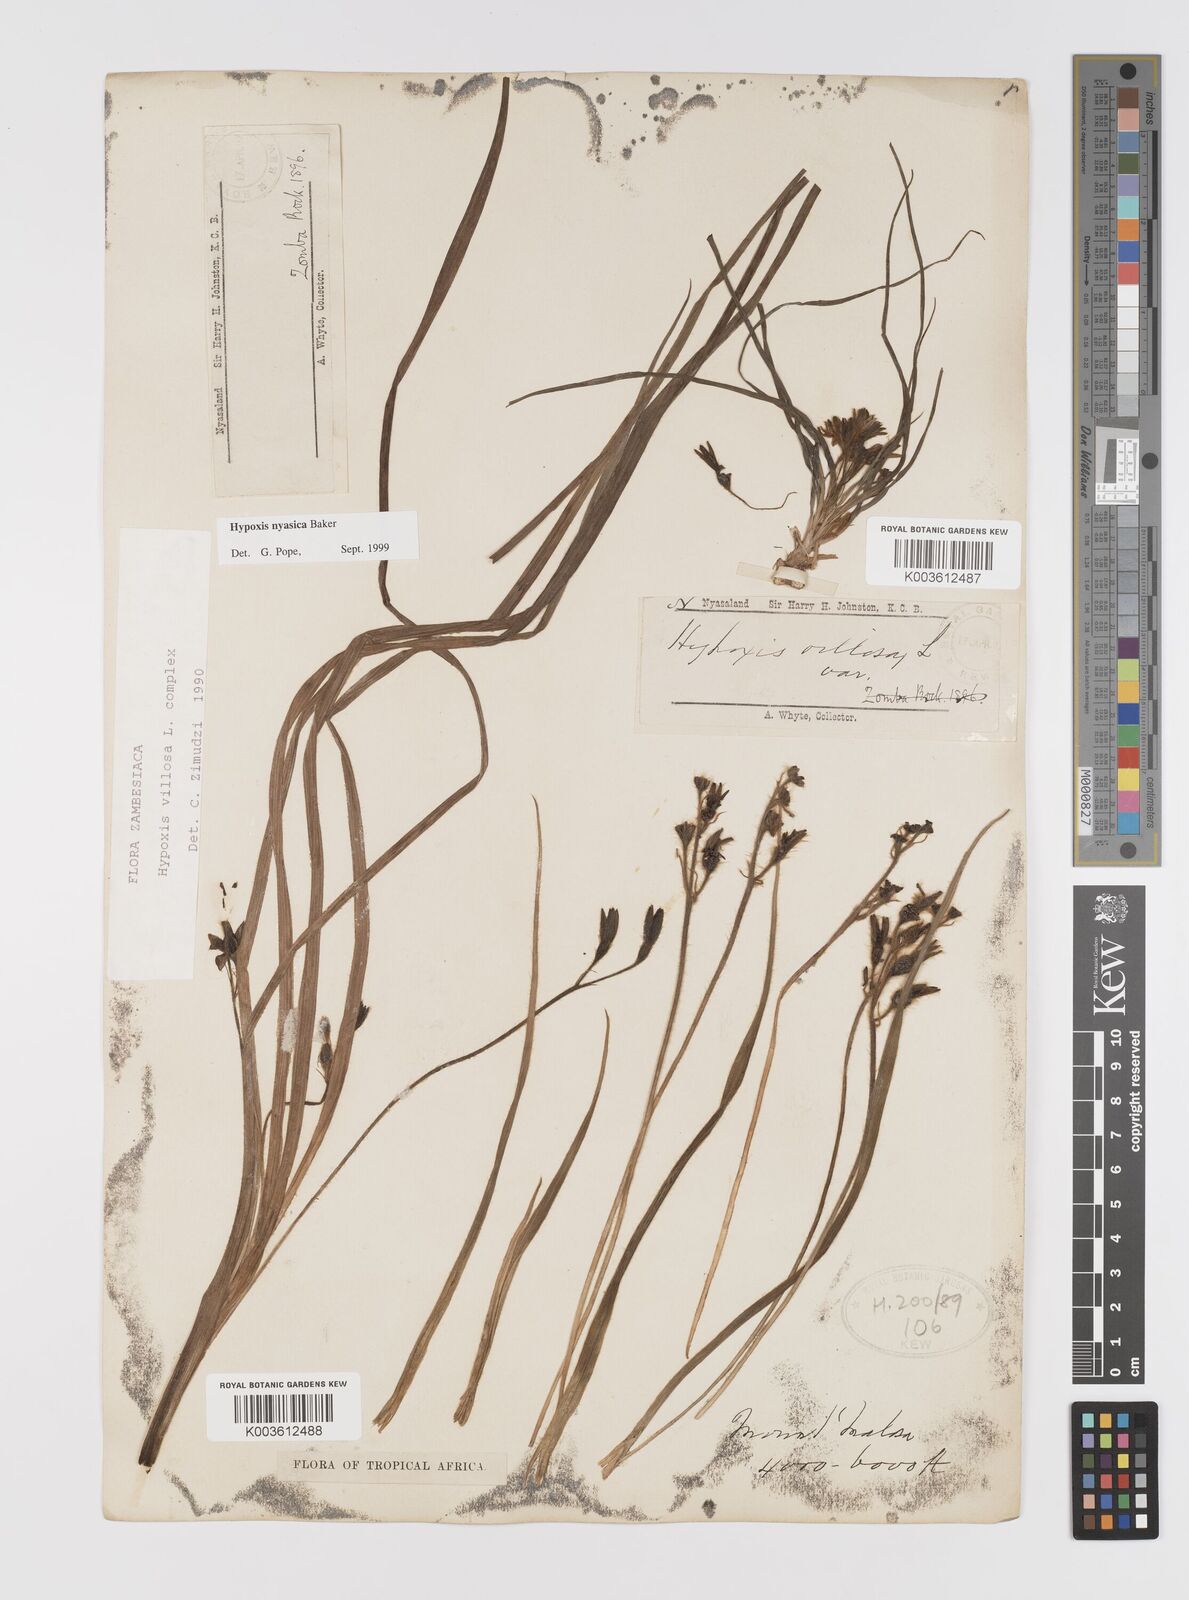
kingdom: Plantae
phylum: Tracheophyta
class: Liliopsida
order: Asparagales
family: Hypoxidaceae
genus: Hypoxis
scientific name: Hypoxis nyasica
